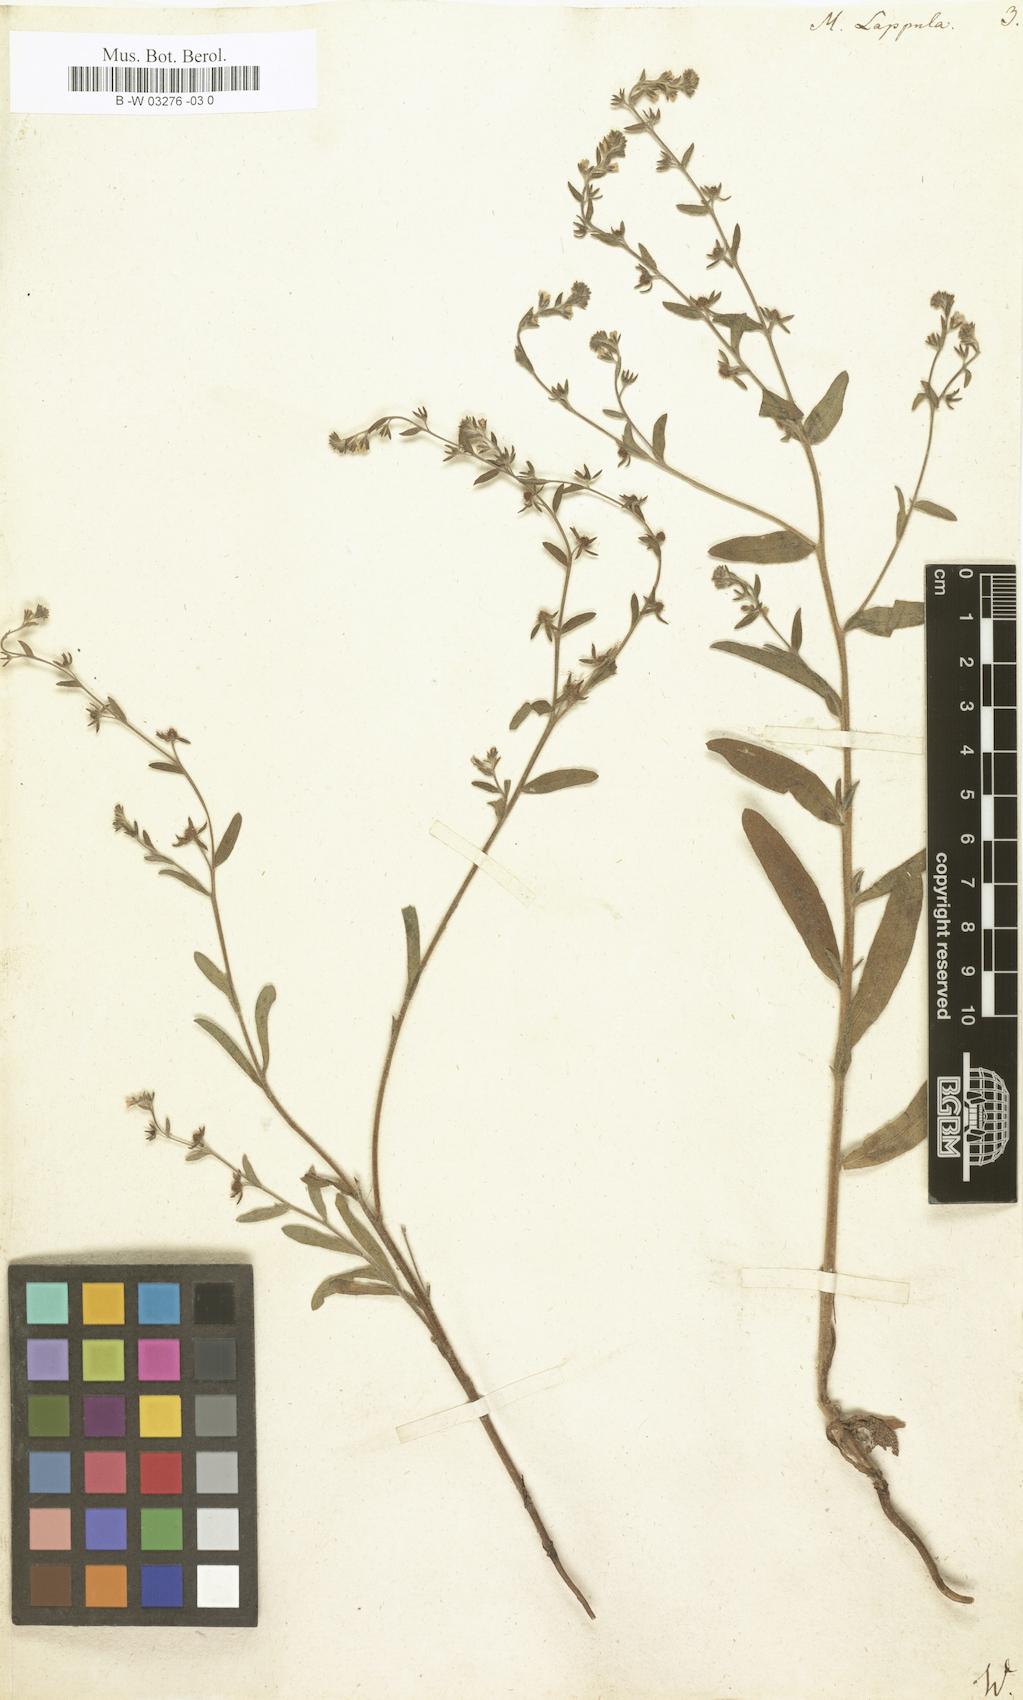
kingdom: Plantae
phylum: Tracheophyta
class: Magnoliopsida
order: Boraginales
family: Boraginaceae
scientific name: Boraginaceae
